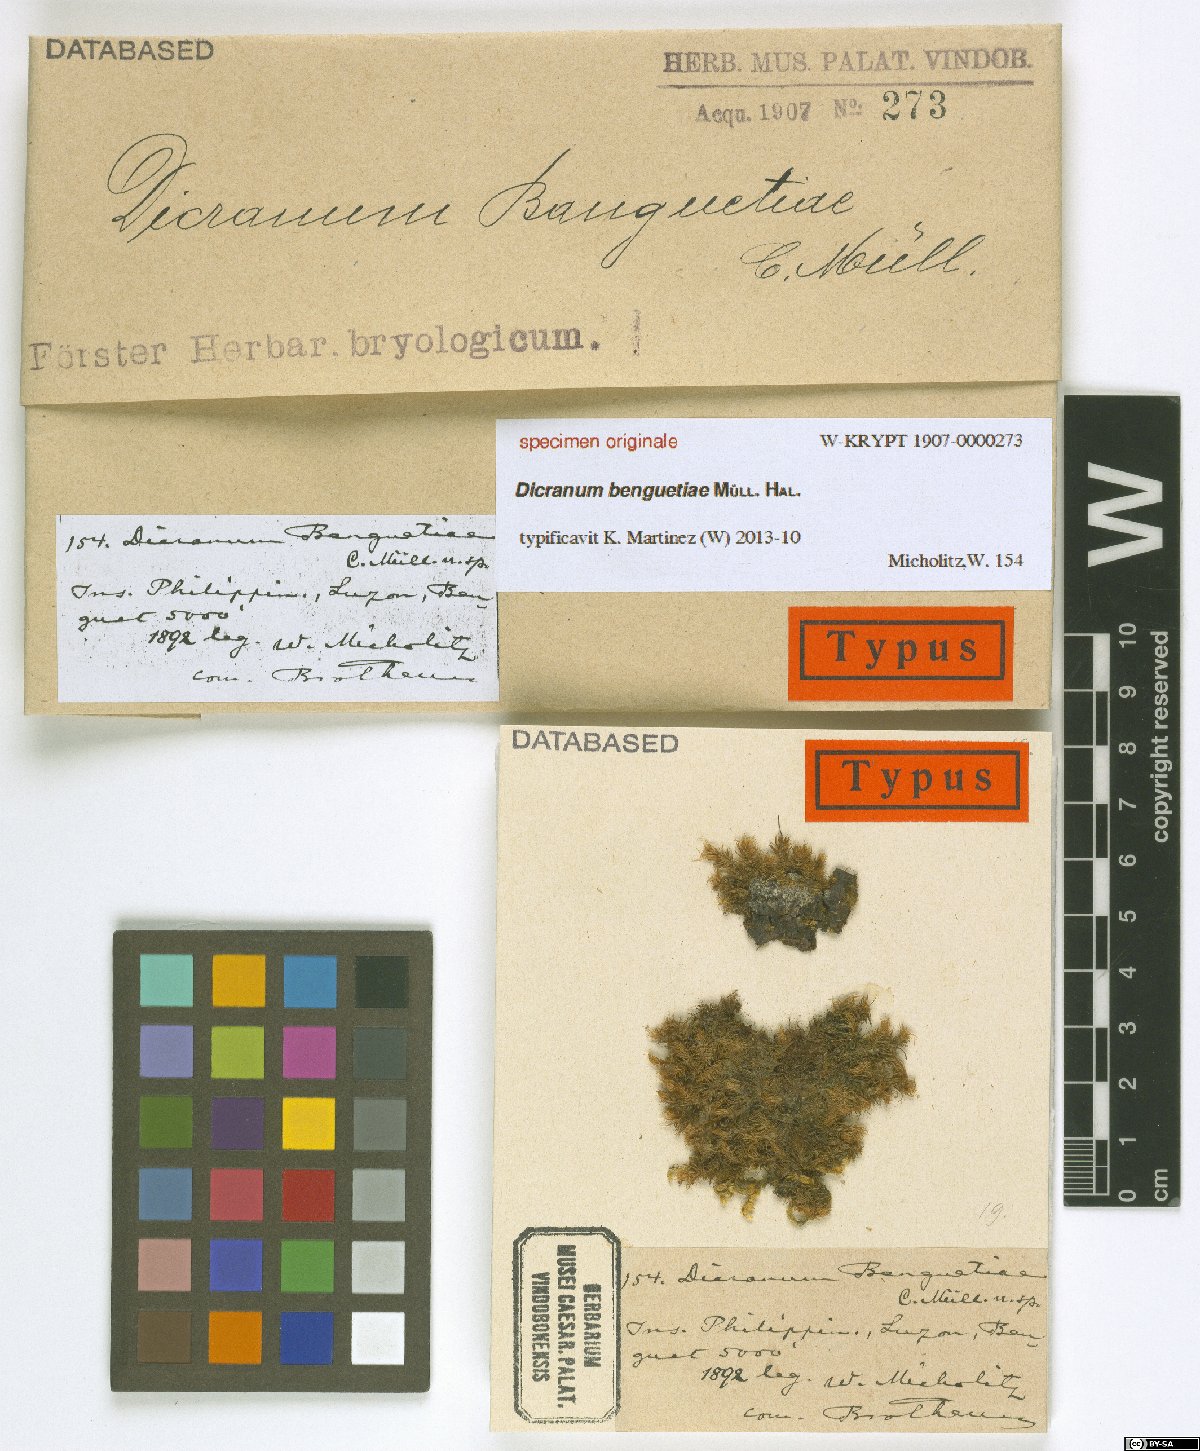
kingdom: Plantae
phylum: Bryophyta
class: Bryopsida
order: Dicranales
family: Dicranaceae
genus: Dicranum
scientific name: Dicranum
